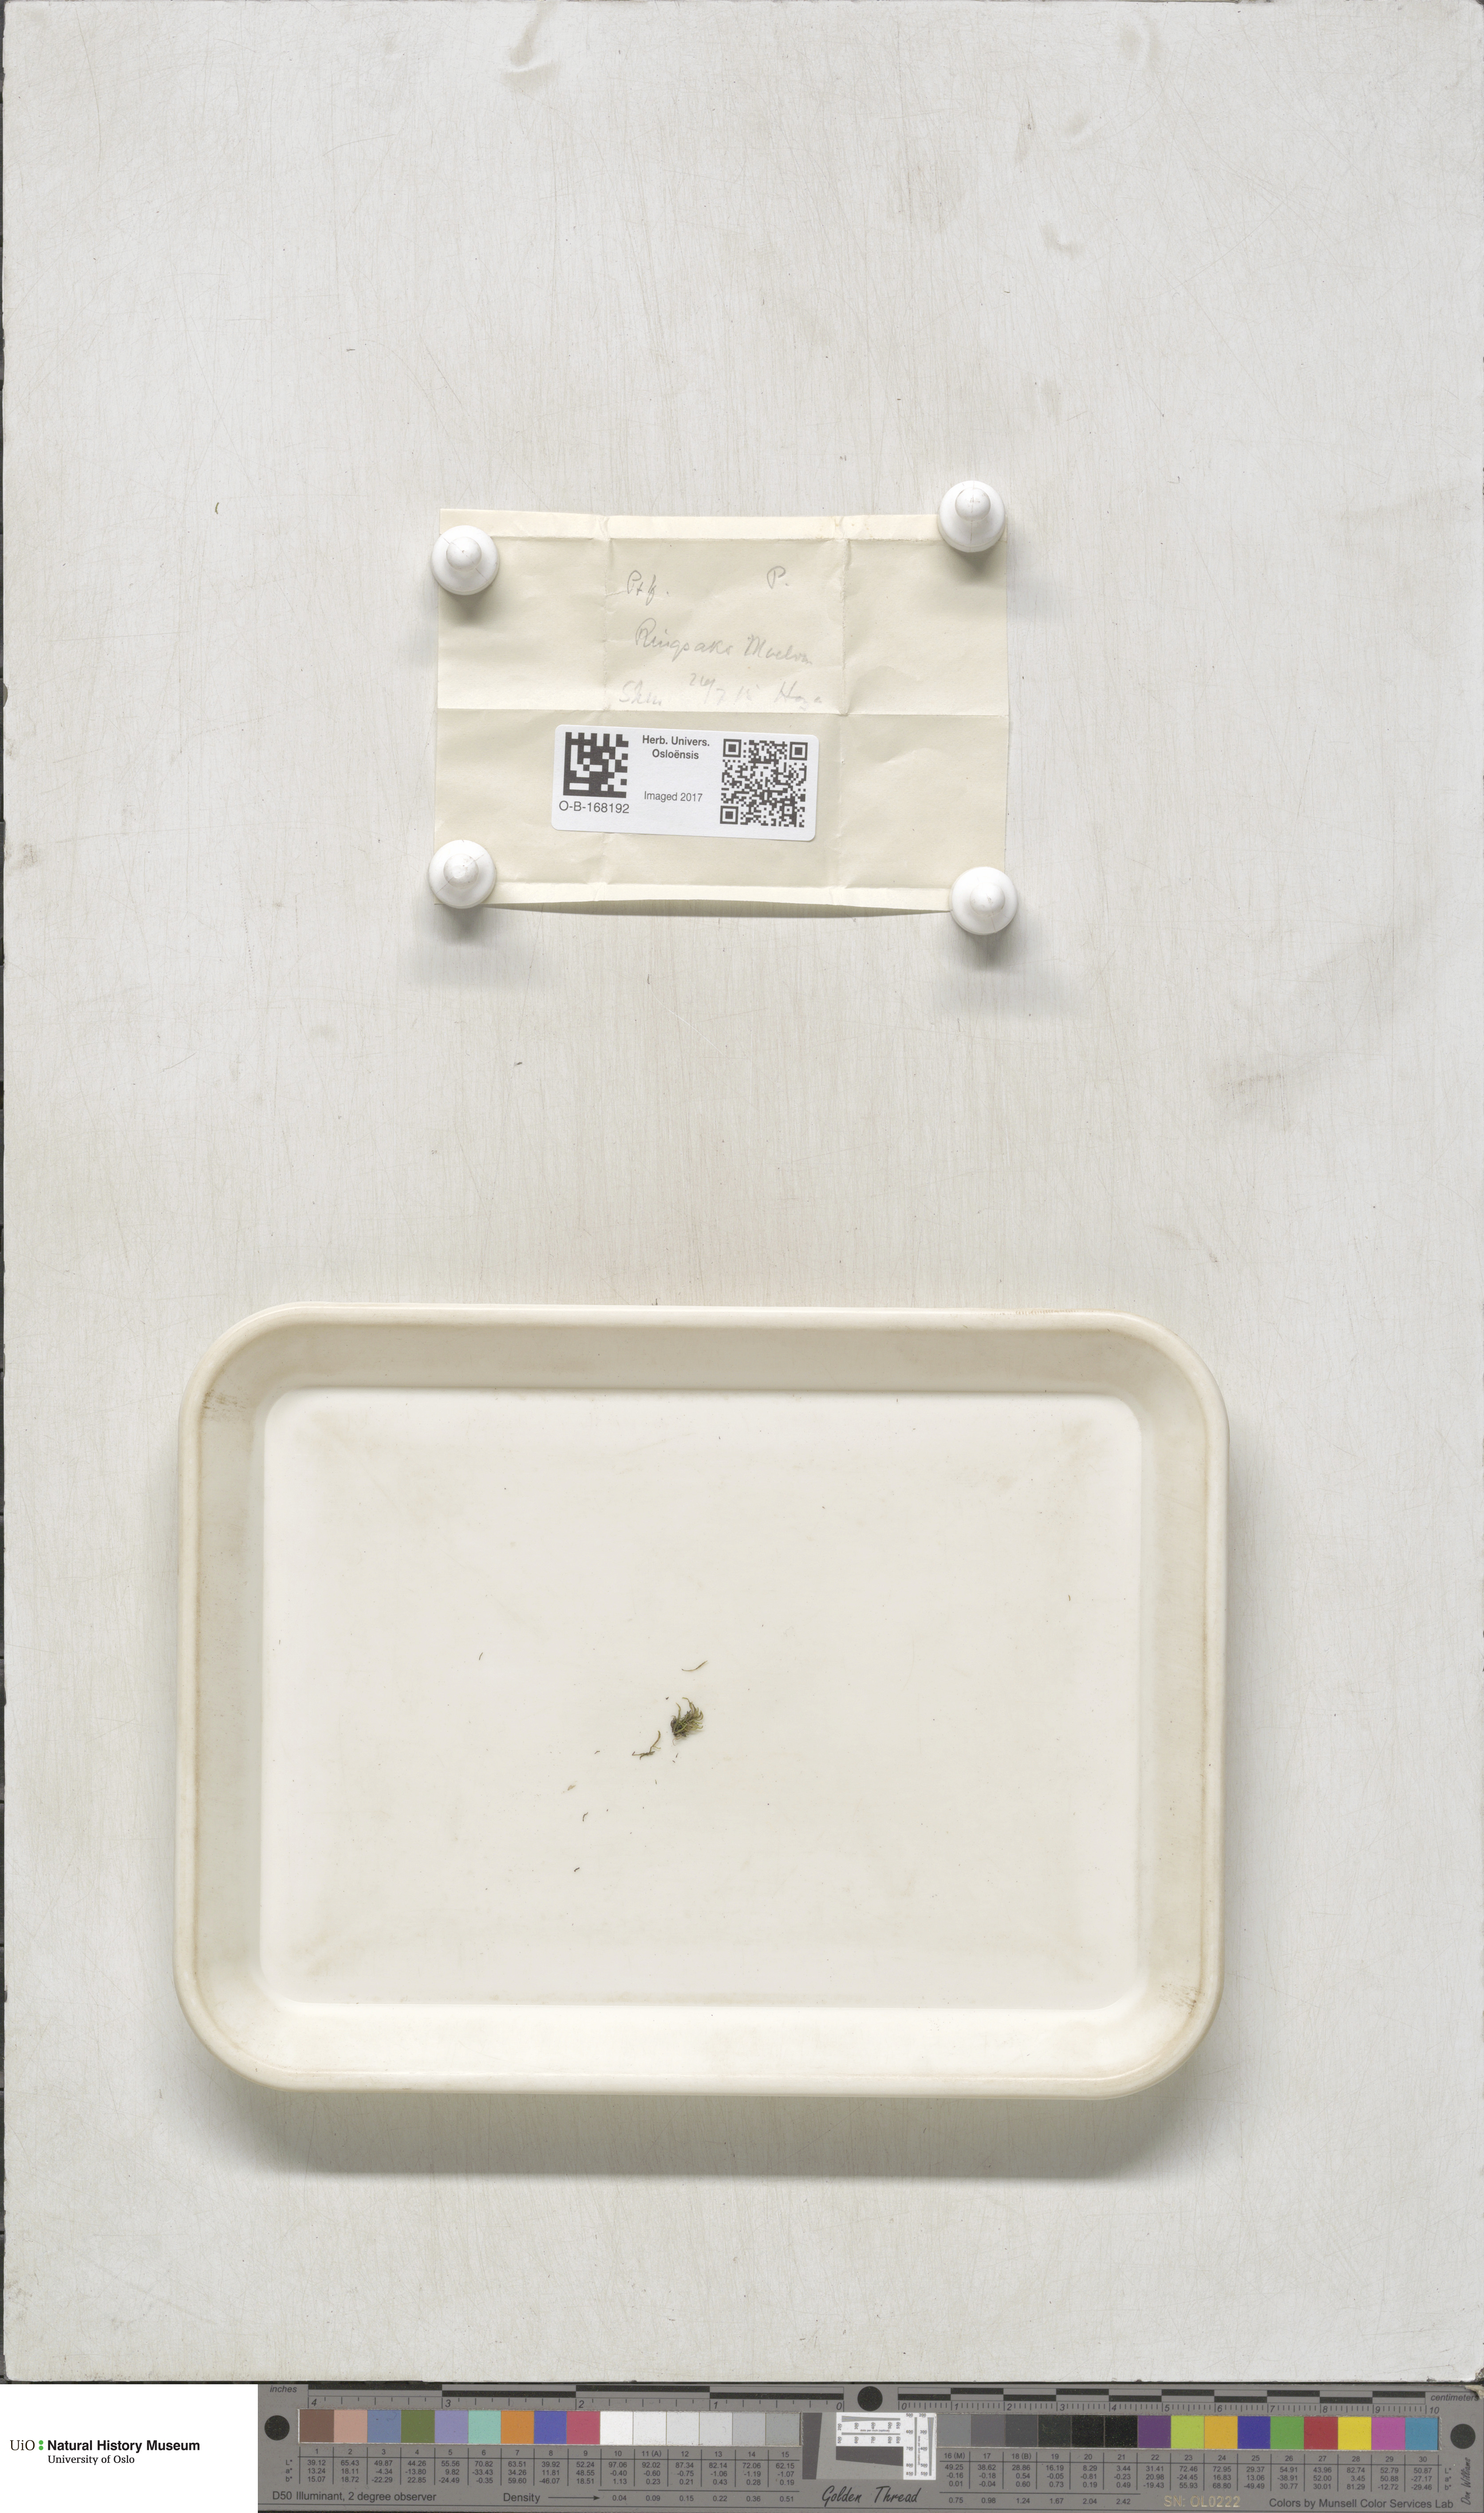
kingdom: Plantae
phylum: Bryophyta
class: Bryopsida
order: Hypnales
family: Pterigynandraceae
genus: Pterigynandrum
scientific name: Pterigynandrum filiforme
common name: Capillary wing moss
